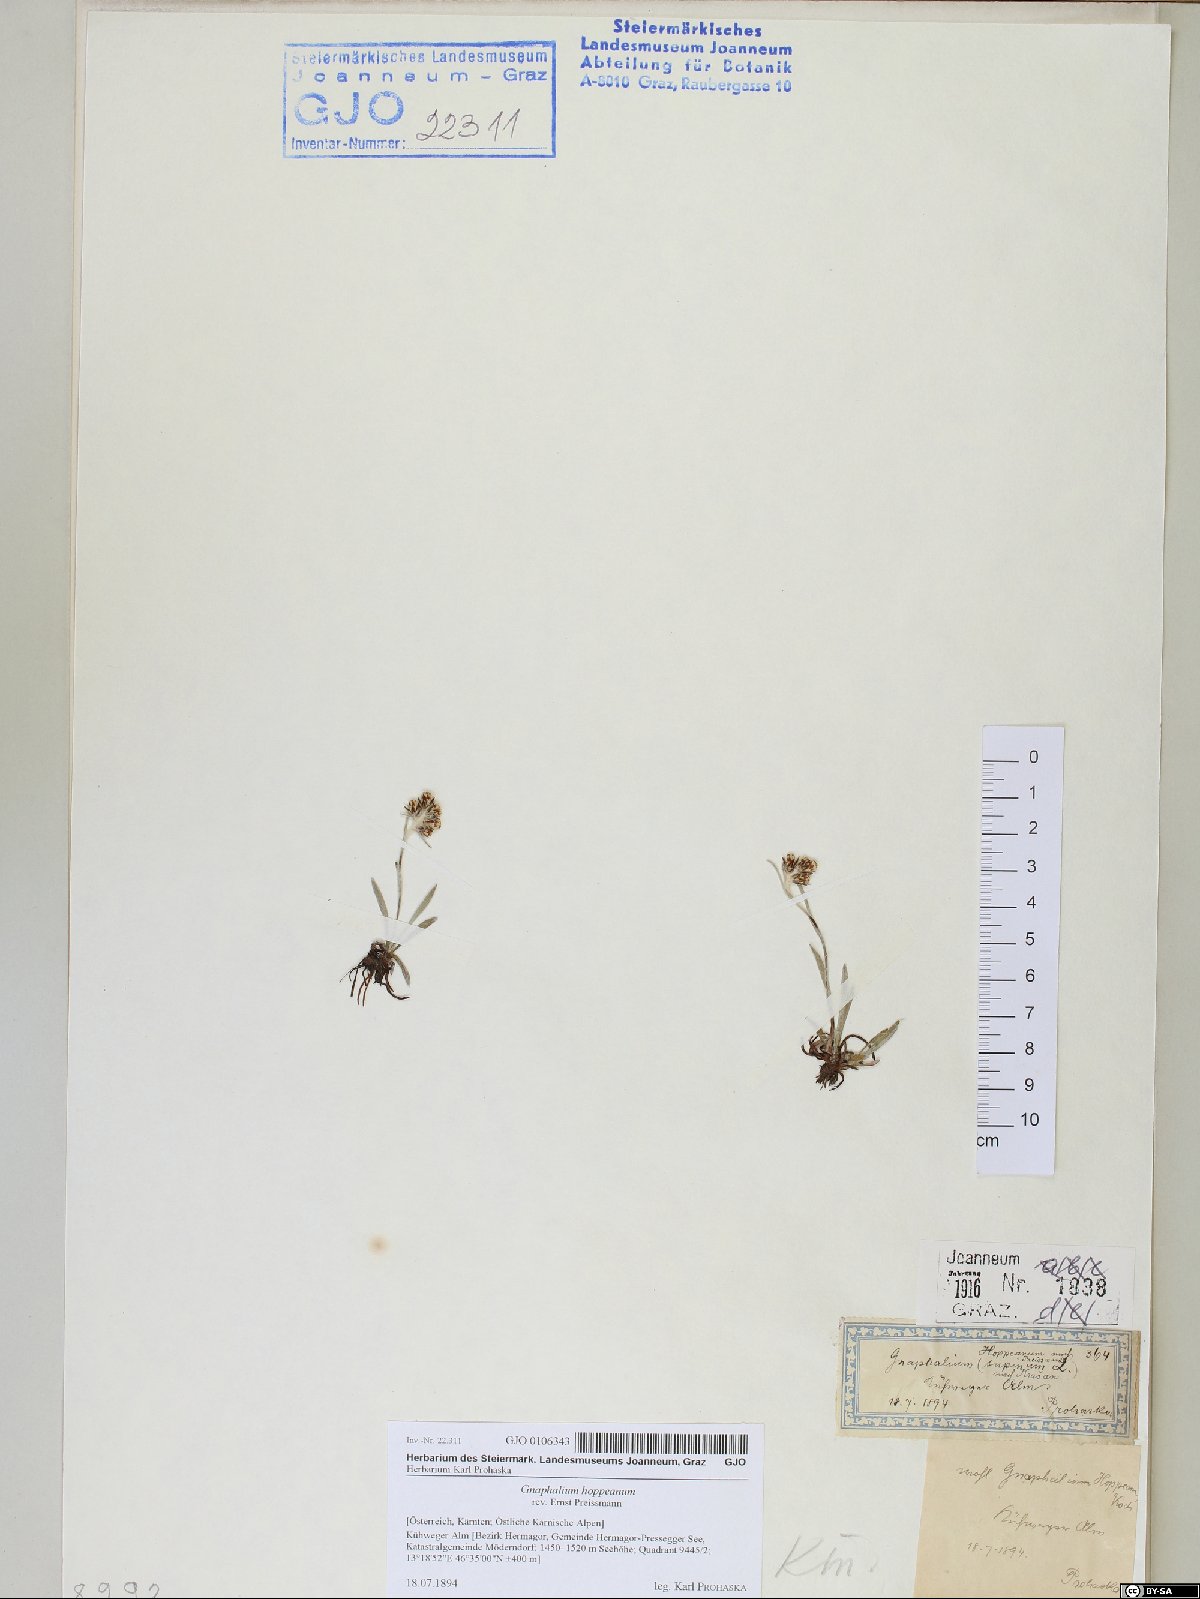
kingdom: Plantae
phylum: Tracheophyta
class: Magnoliopsida
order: Asterales
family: Asteraceae
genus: Omalotheca
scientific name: Omalotheca hoppeana
